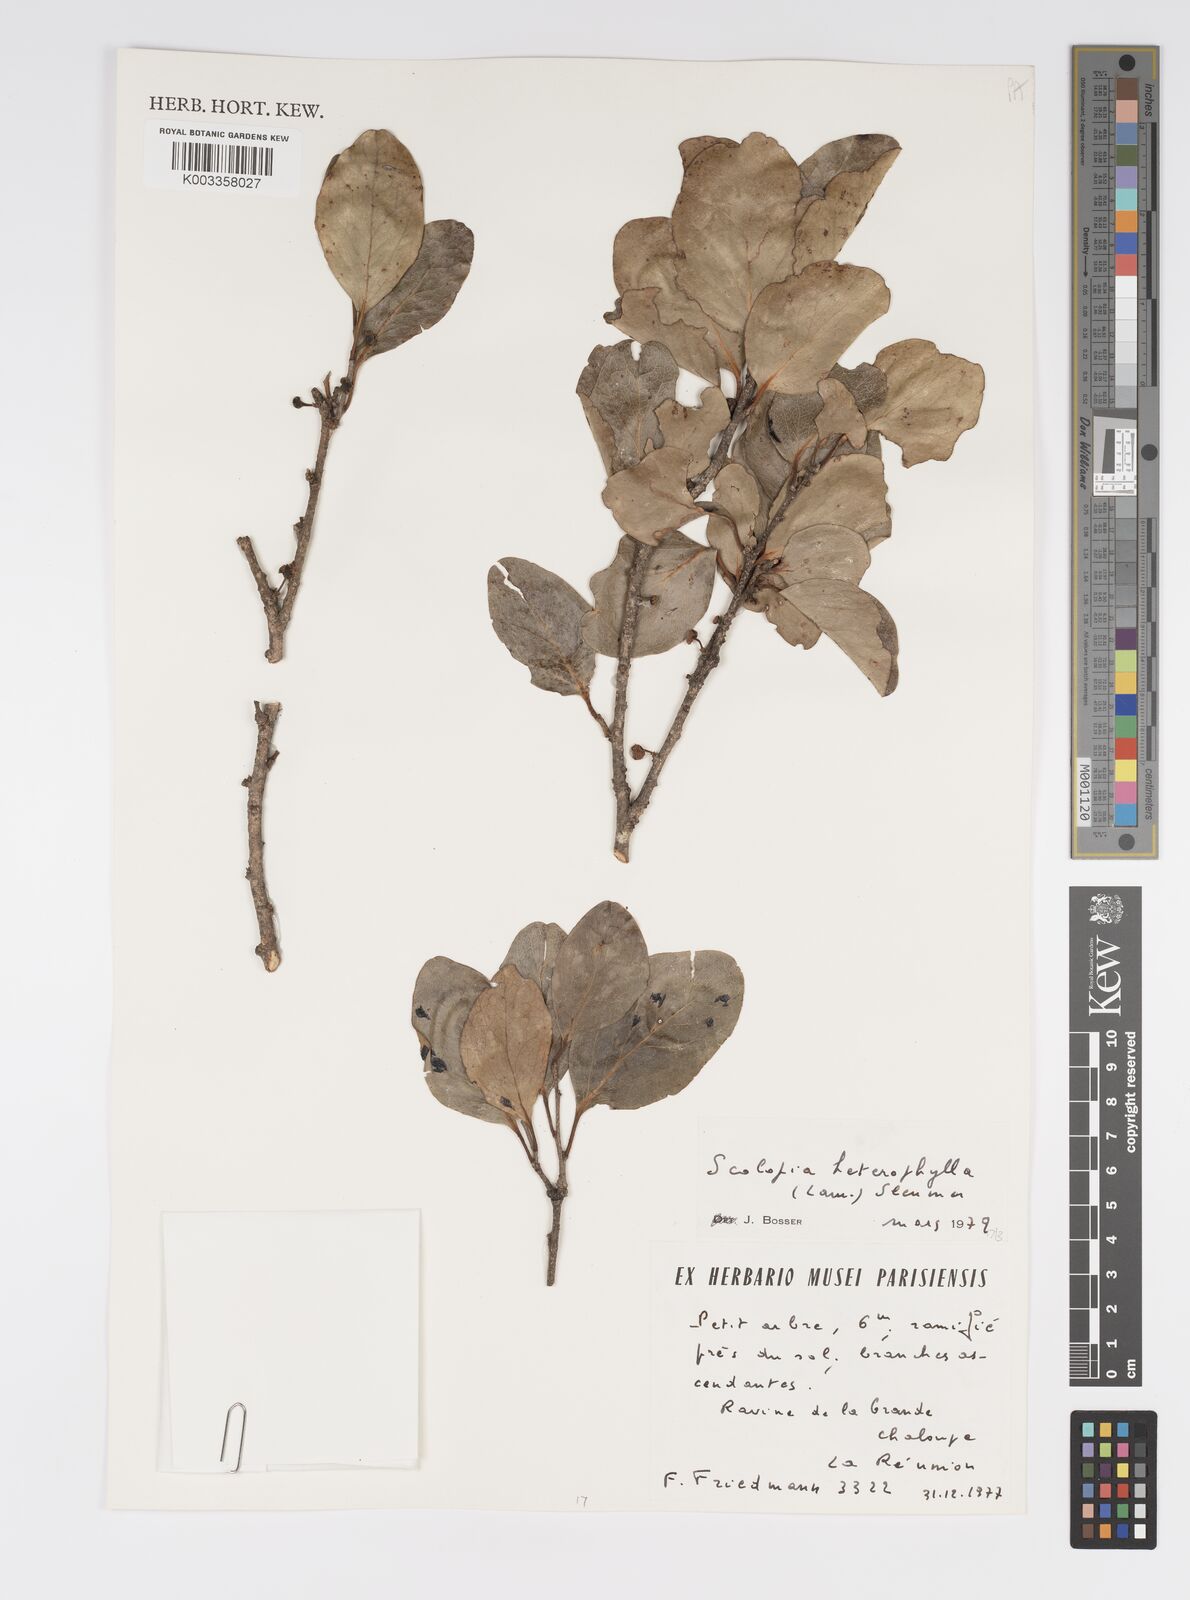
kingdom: Plantae
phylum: Tracheophyta
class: Magnoliopsida
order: Malpighiales
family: Salicaceae
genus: Scolopia
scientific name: Scolopia heterophylla
